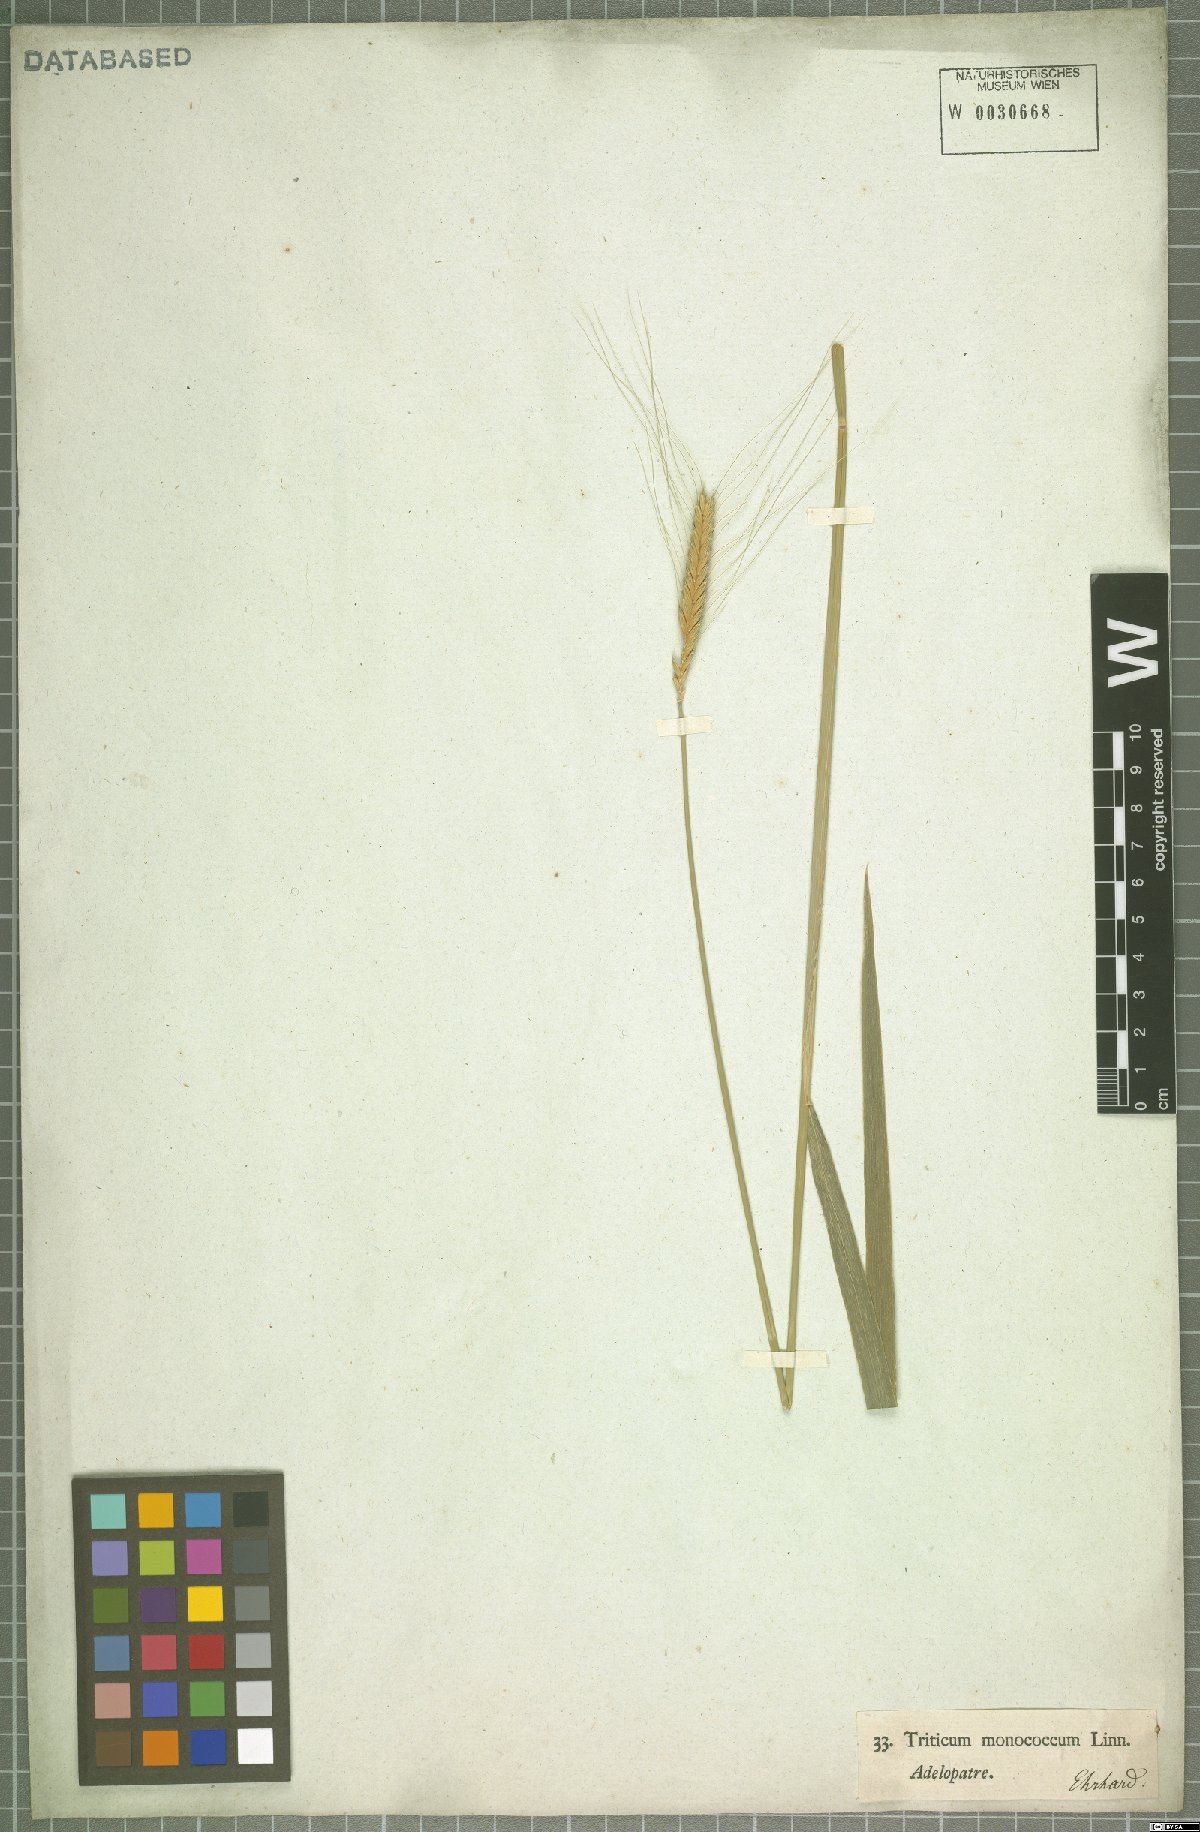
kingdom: Plantae
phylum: Tracheophyta
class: Liliopsida
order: Poales
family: Poaceae
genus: Triticum
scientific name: Triticum monococcum
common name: Einkorn
